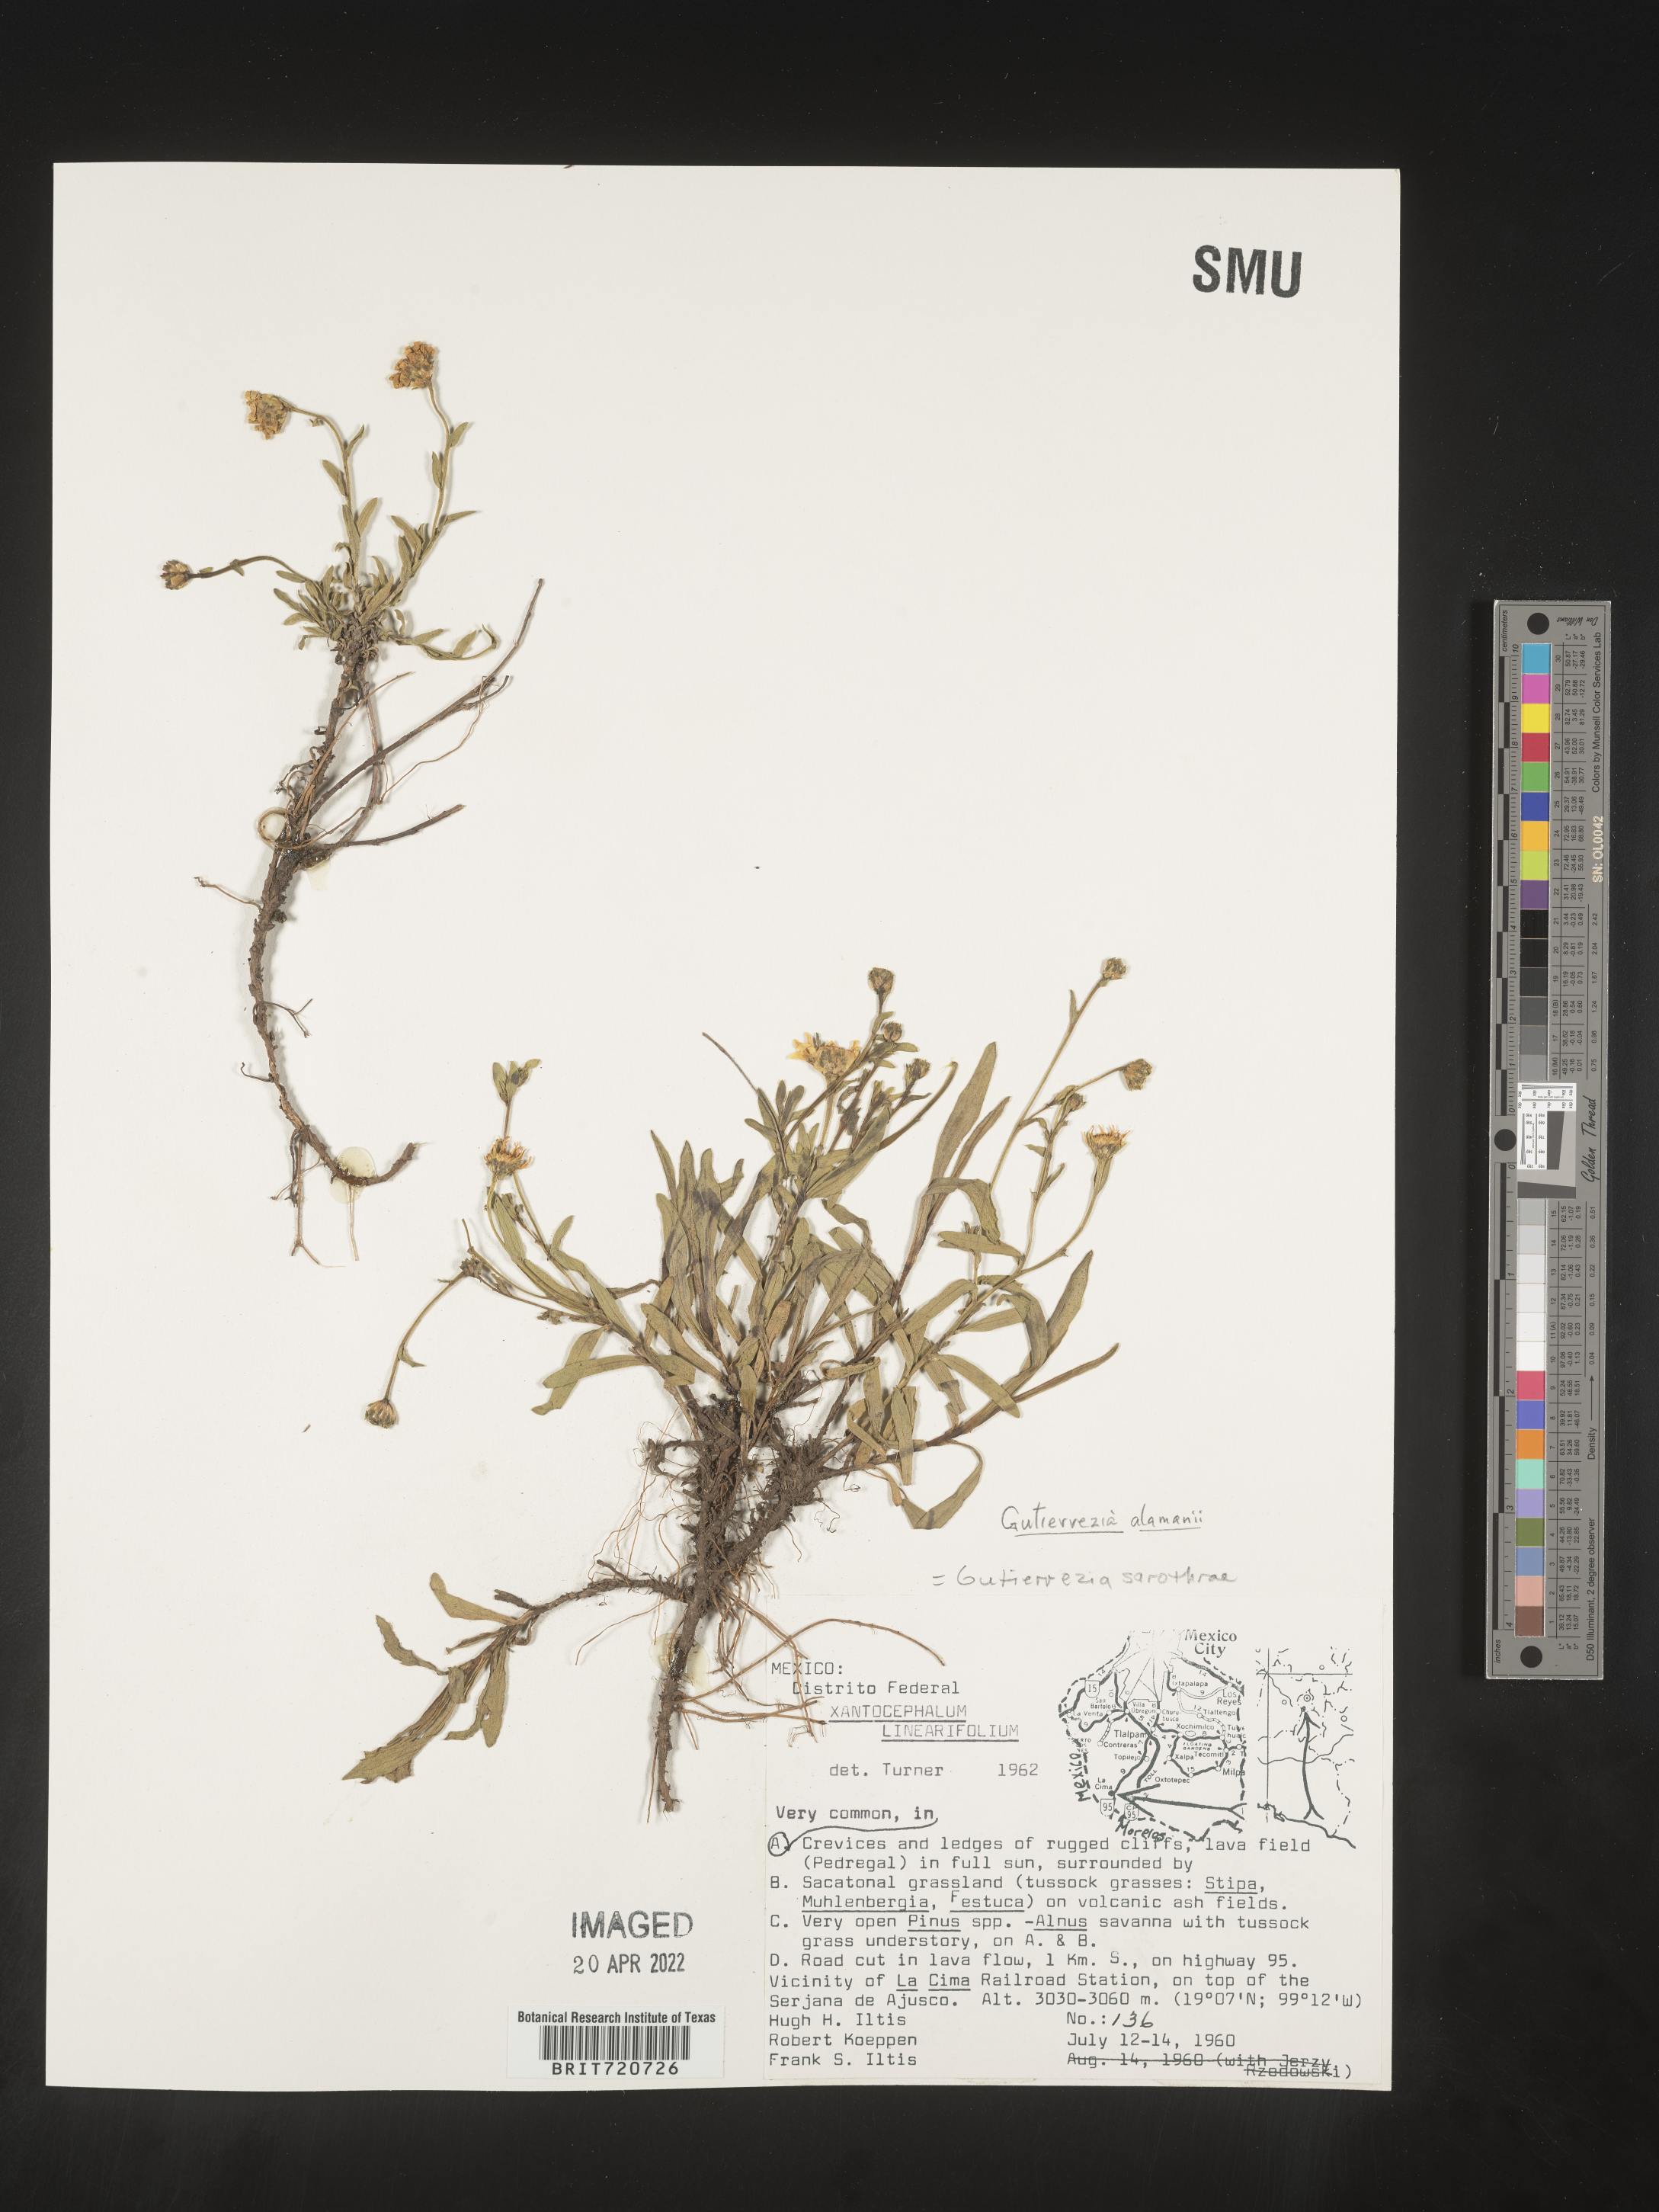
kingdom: Plantae
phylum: Tracheophyta
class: Magnoliopsida
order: Asterales
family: Asteraceae
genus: Gutierrezia
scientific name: Gutierrezia dunalii
